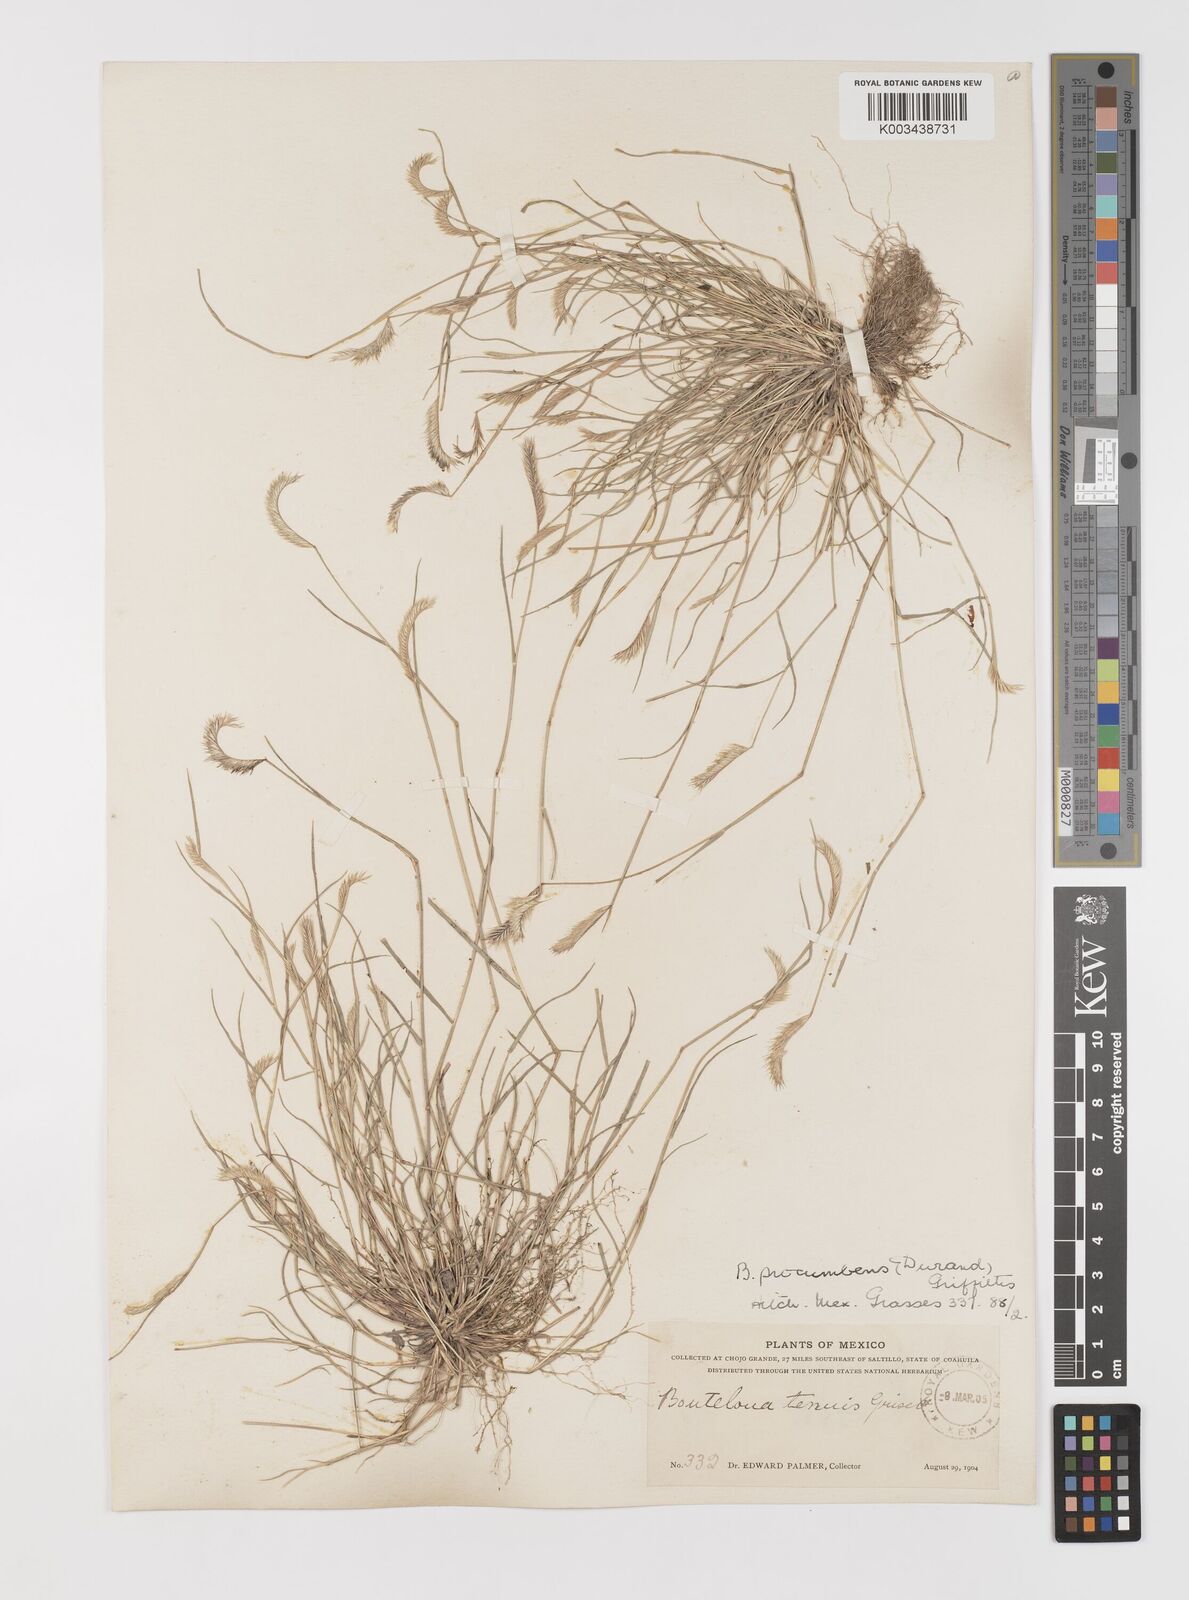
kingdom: Plantae
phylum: Tracheophyta
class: Liliopsida
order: Poales
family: Poaceae
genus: Bouteloua
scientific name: Bouteloua simplex
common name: Mat grama
